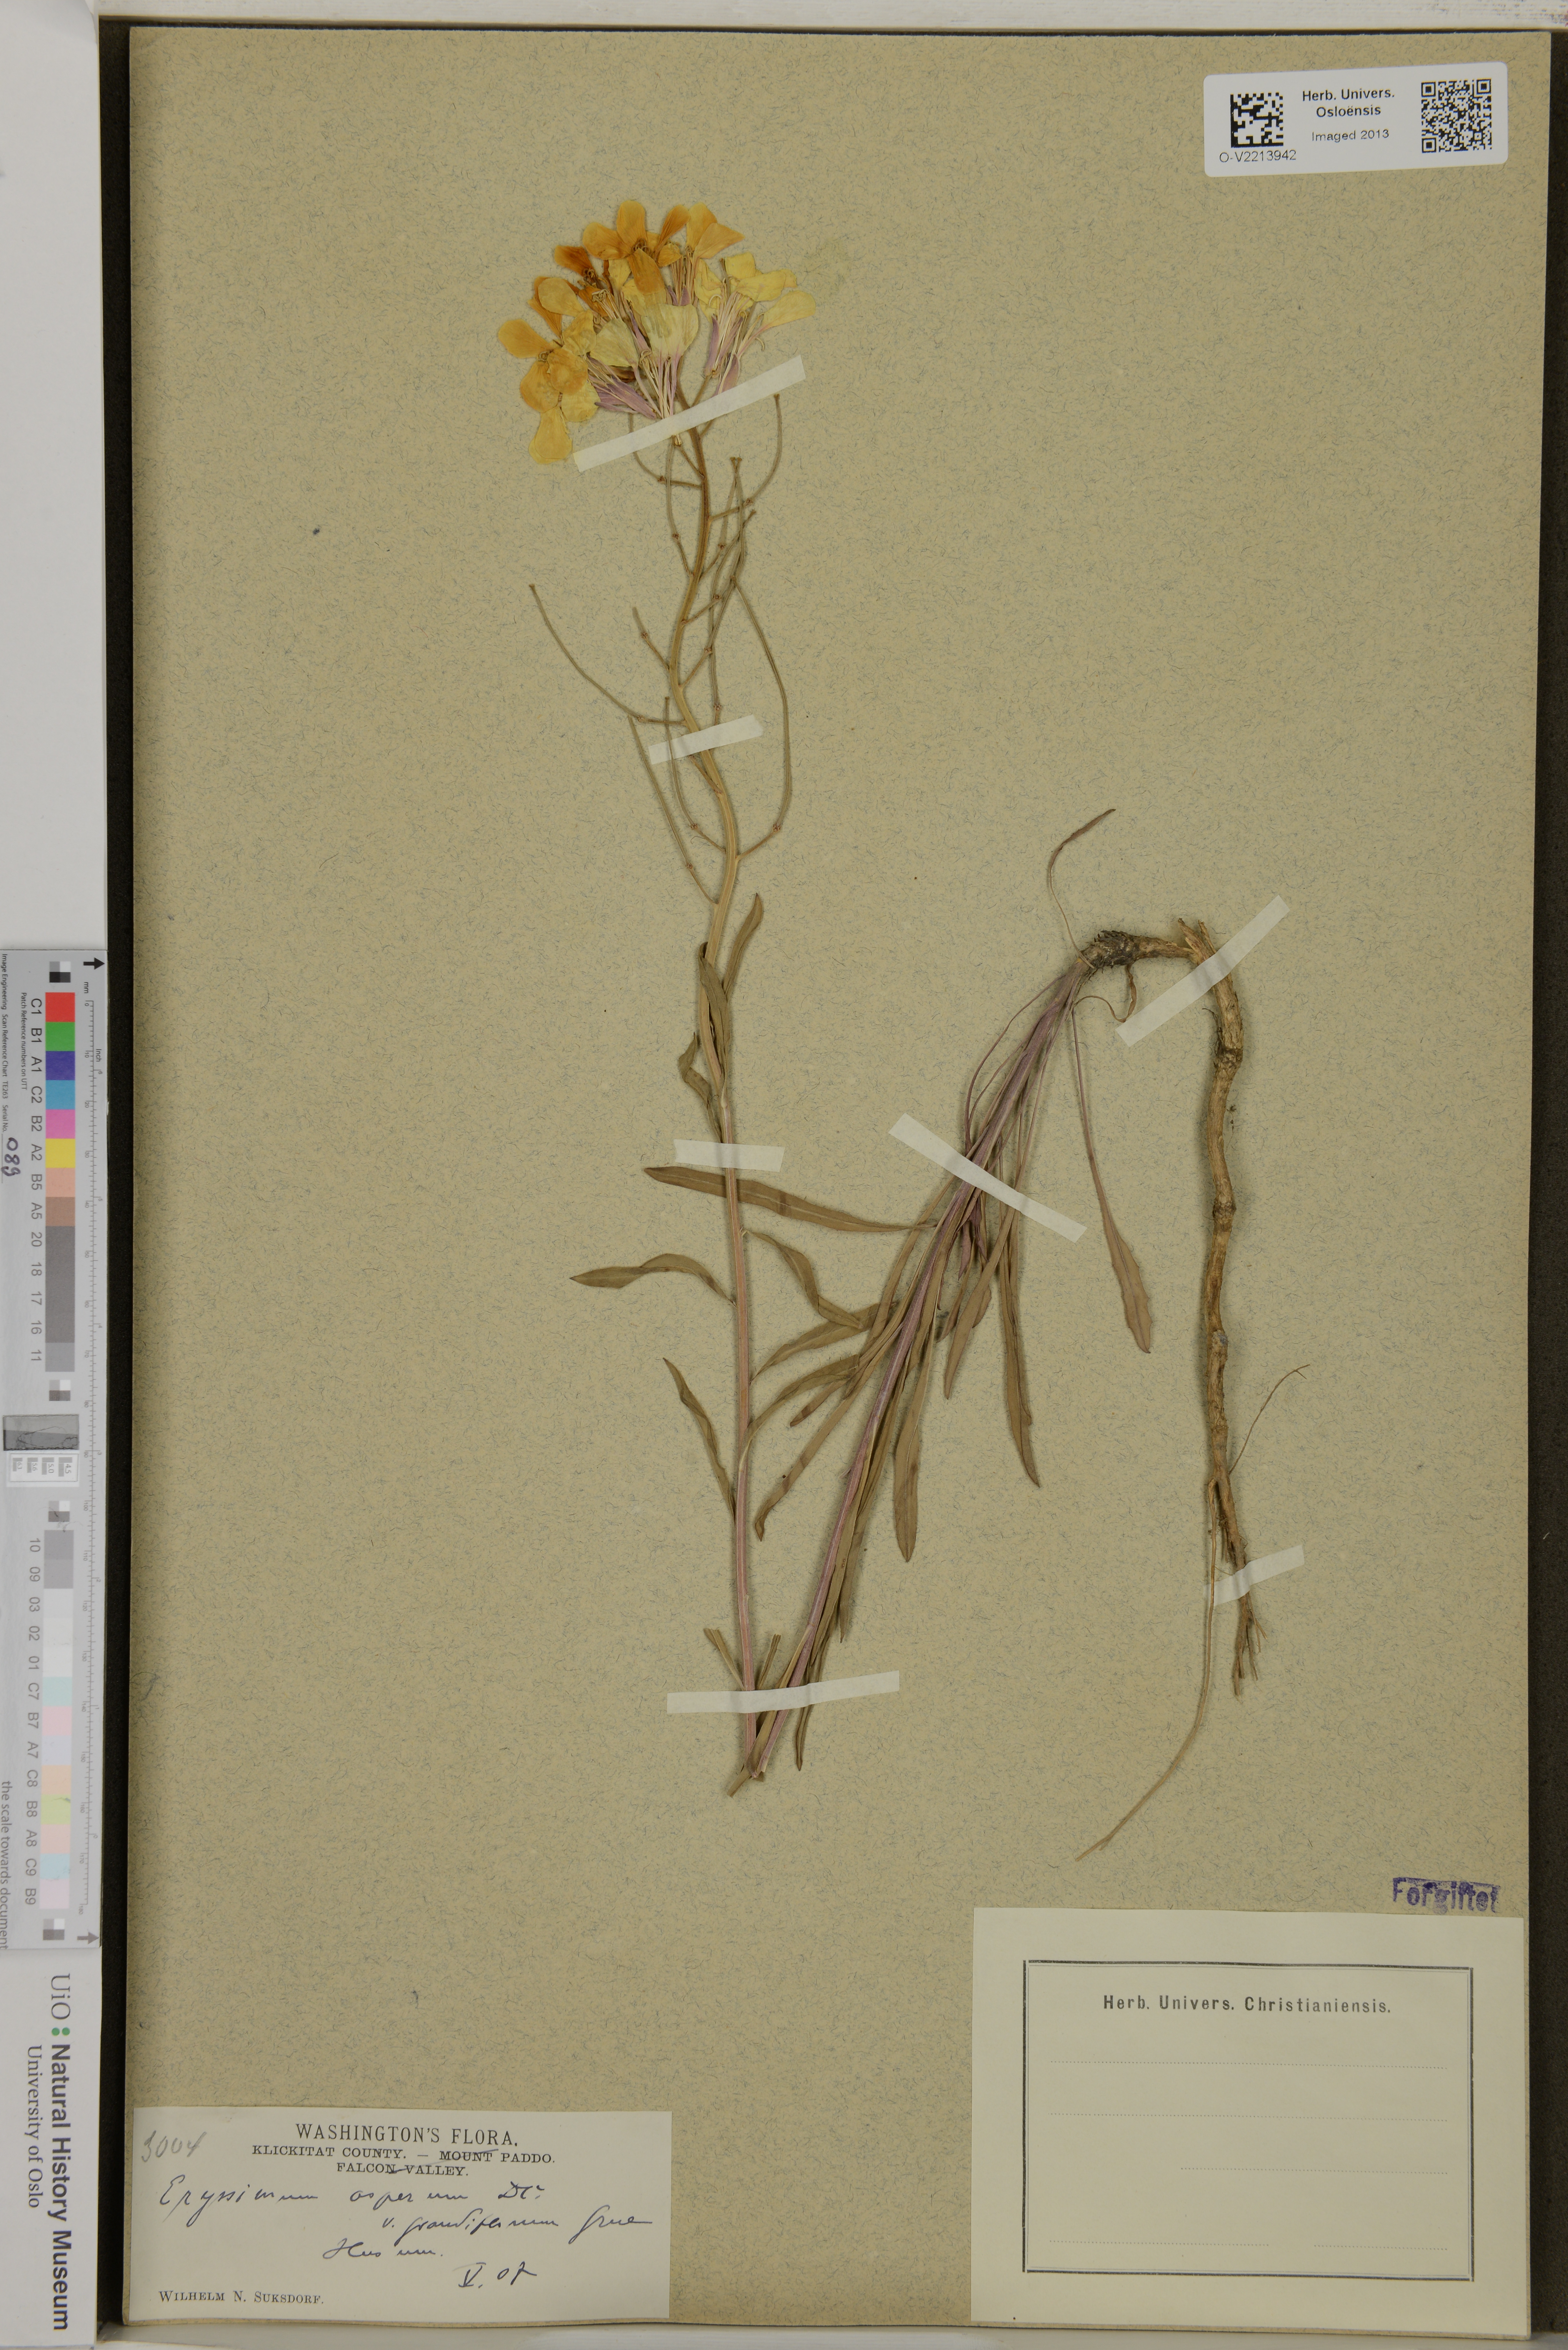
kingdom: Plantae
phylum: Tracheophyta
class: Magnoliopsida
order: Brassicales
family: Brassicaceae
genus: Erysimum
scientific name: Erysimum asperum
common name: Western wallflower
